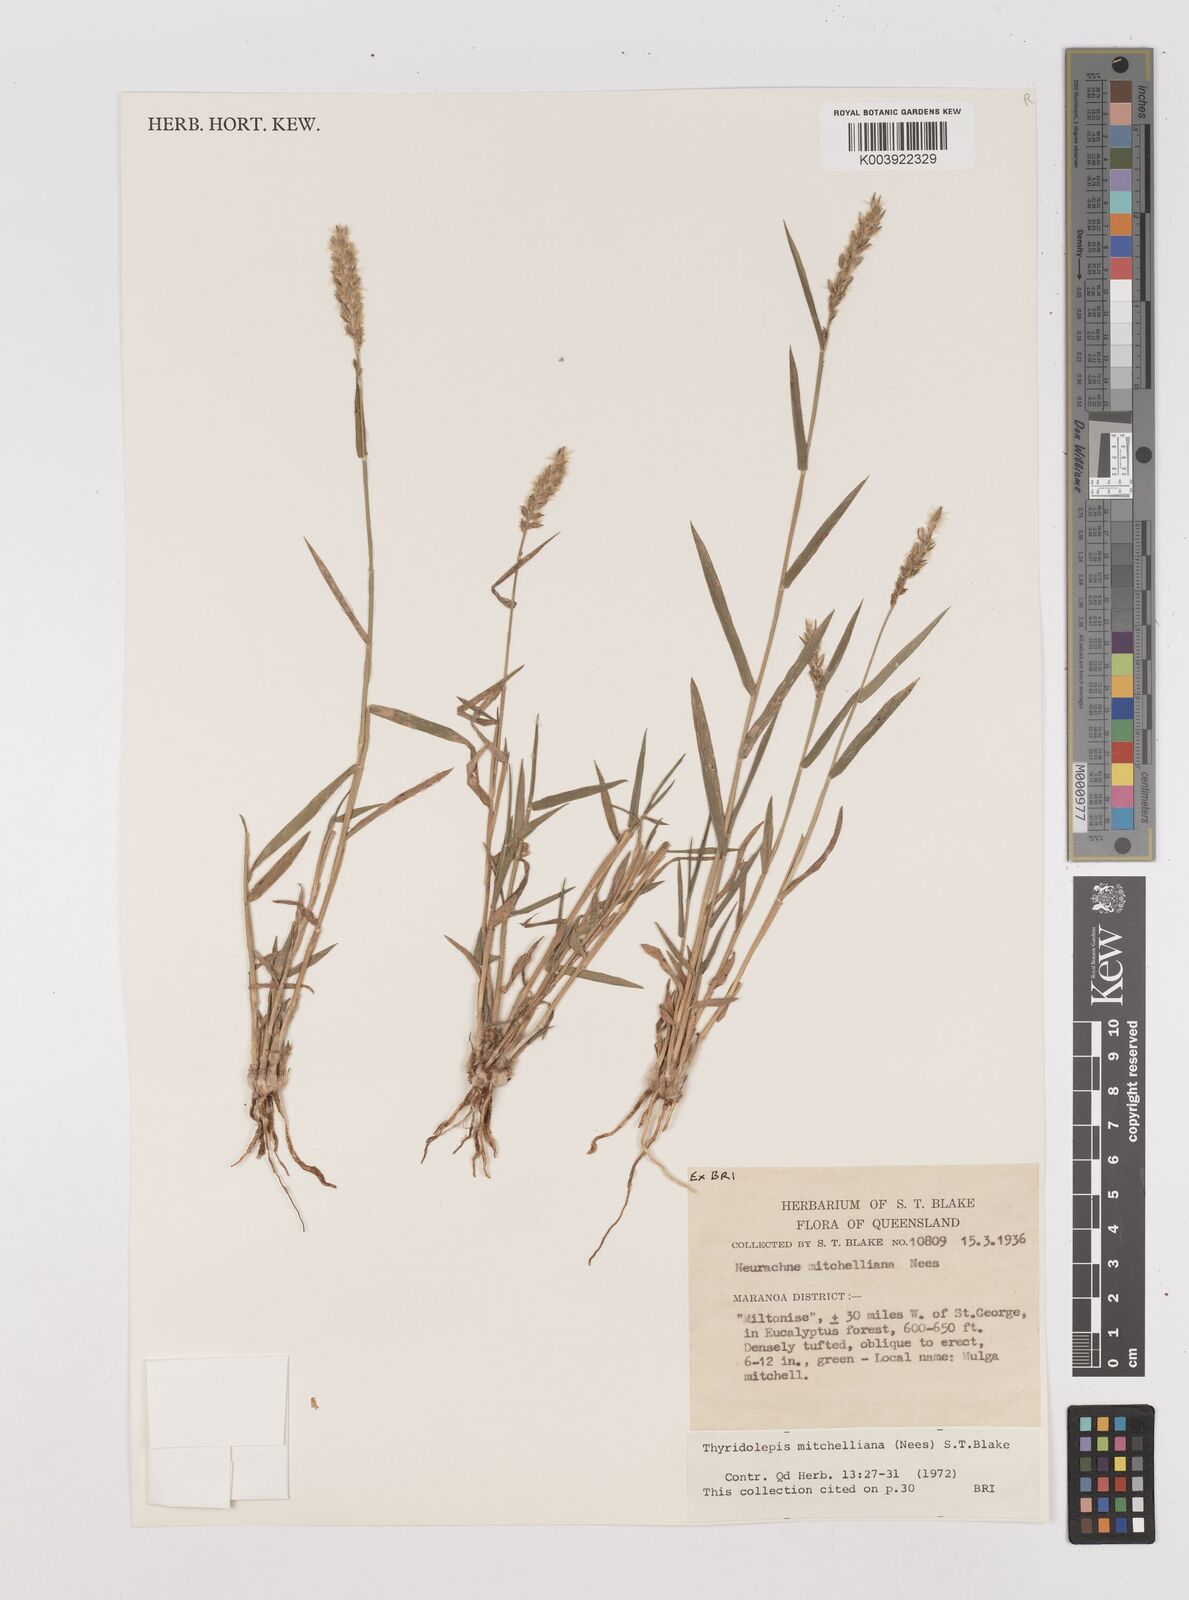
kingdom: Plantae
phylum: Tracheophyta
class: Liliopsida
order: Poales
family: Poaceae
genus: Thyridolepis
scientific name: Thyridolepis mitchelliana
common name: Rock tassel grass
